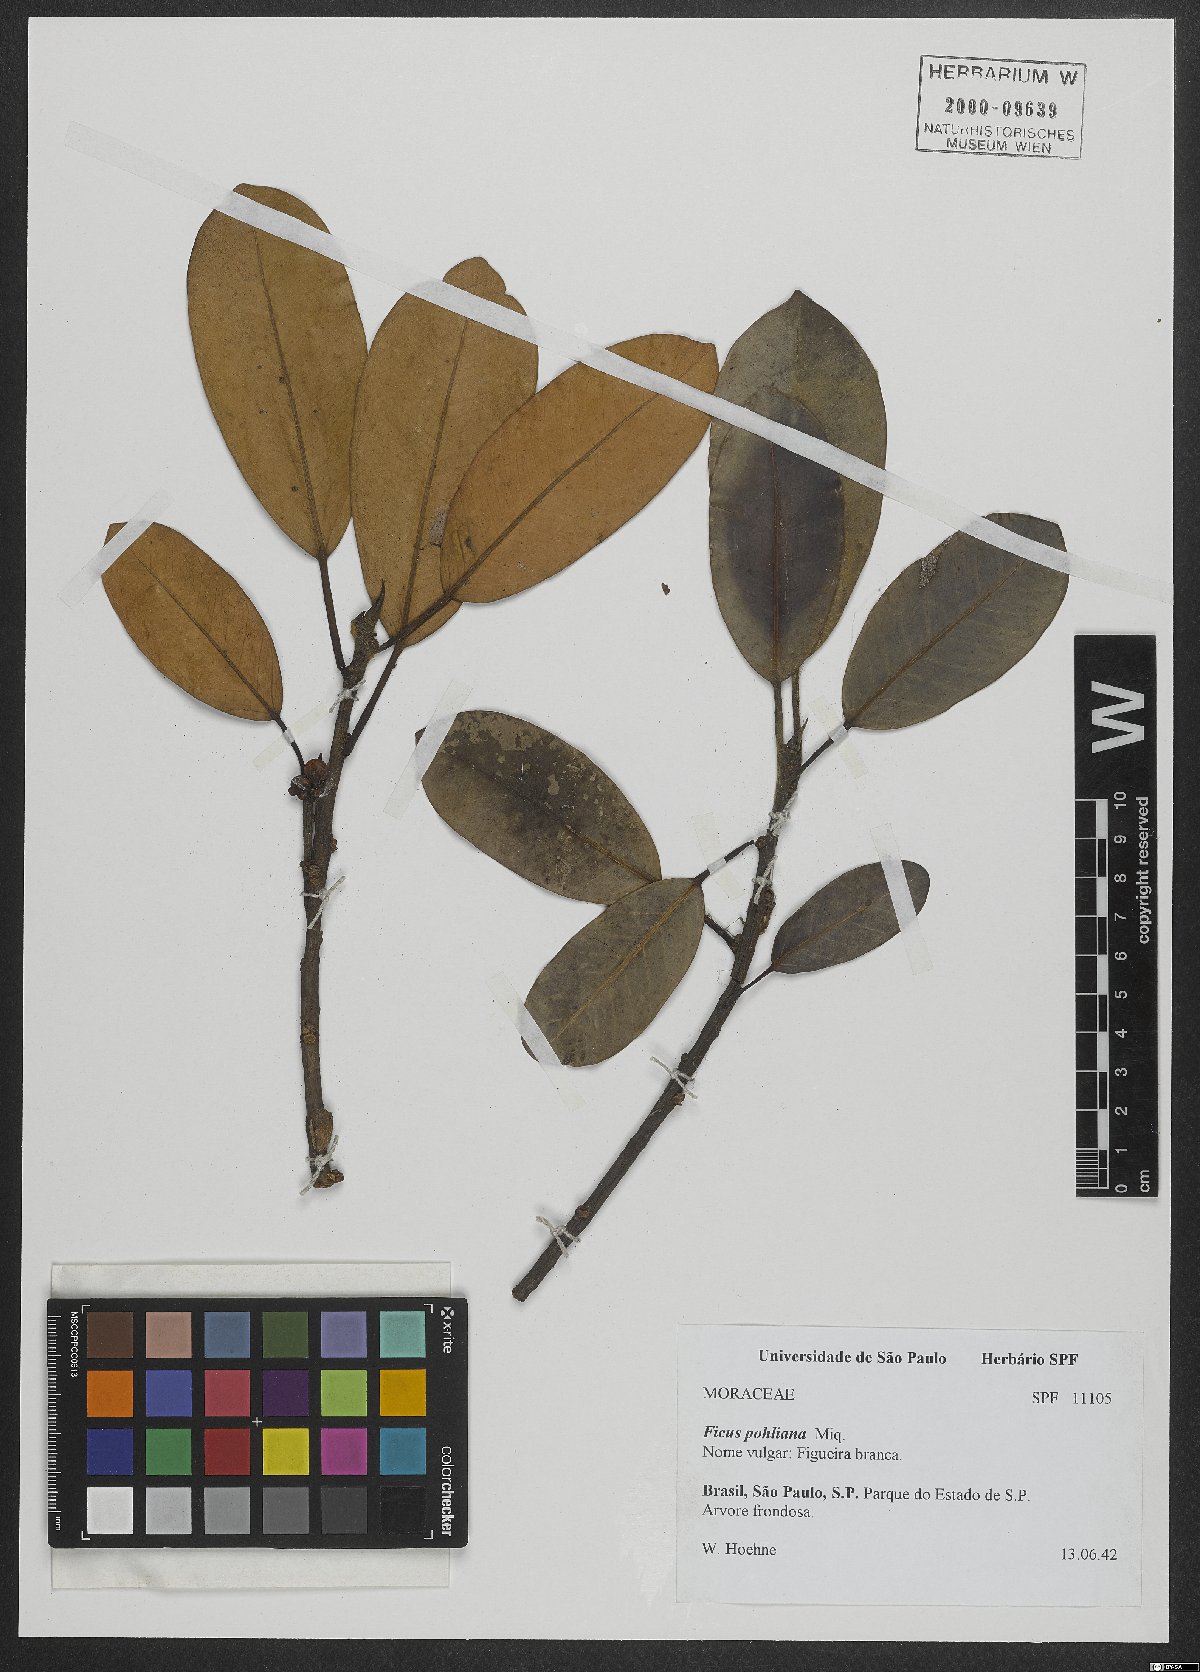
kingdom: Plantae
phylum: Tracheophyta
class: Magnoliopsida
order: Rosales
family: Moraceae
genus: Ficus
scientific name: Ficus cestrifolia
